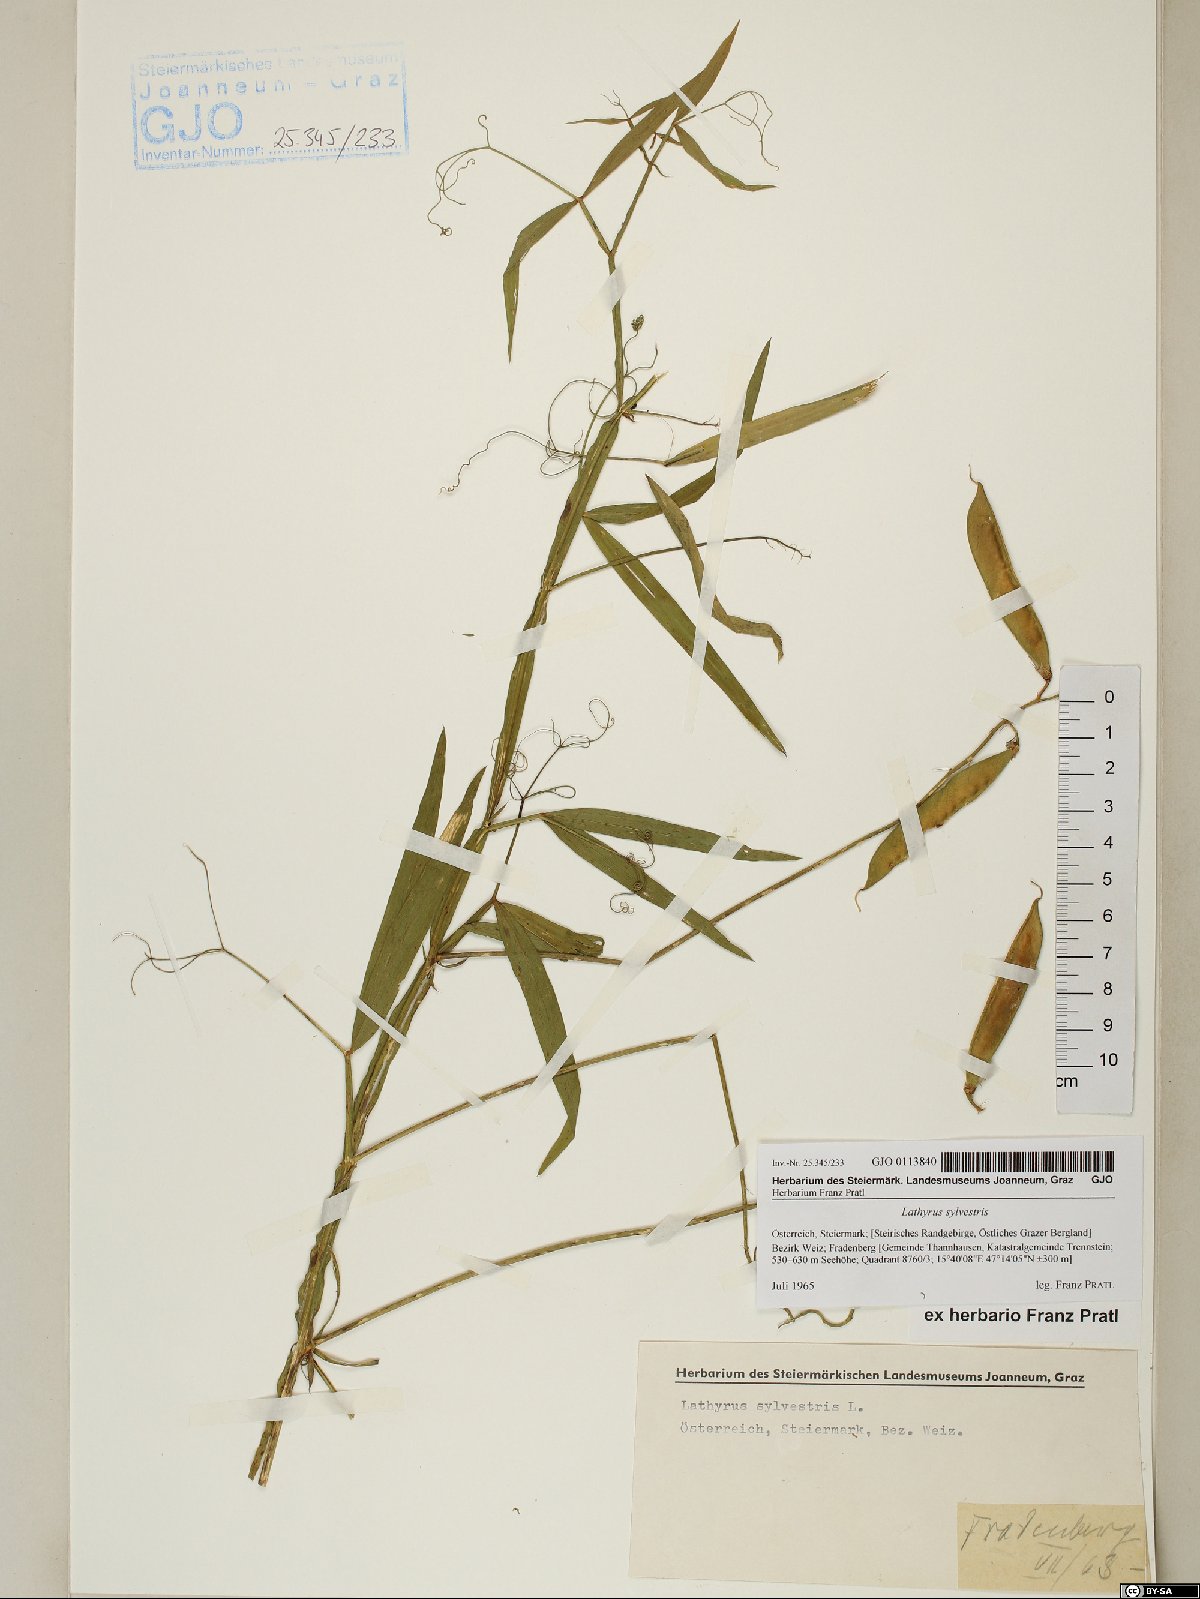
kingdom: Plantae
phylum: Tracheophyta
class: Magnoliopsida
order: Fabales
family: Fabaceae
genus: Lathyrus
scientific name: Lathyrus sylvestris
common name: Flat pea
